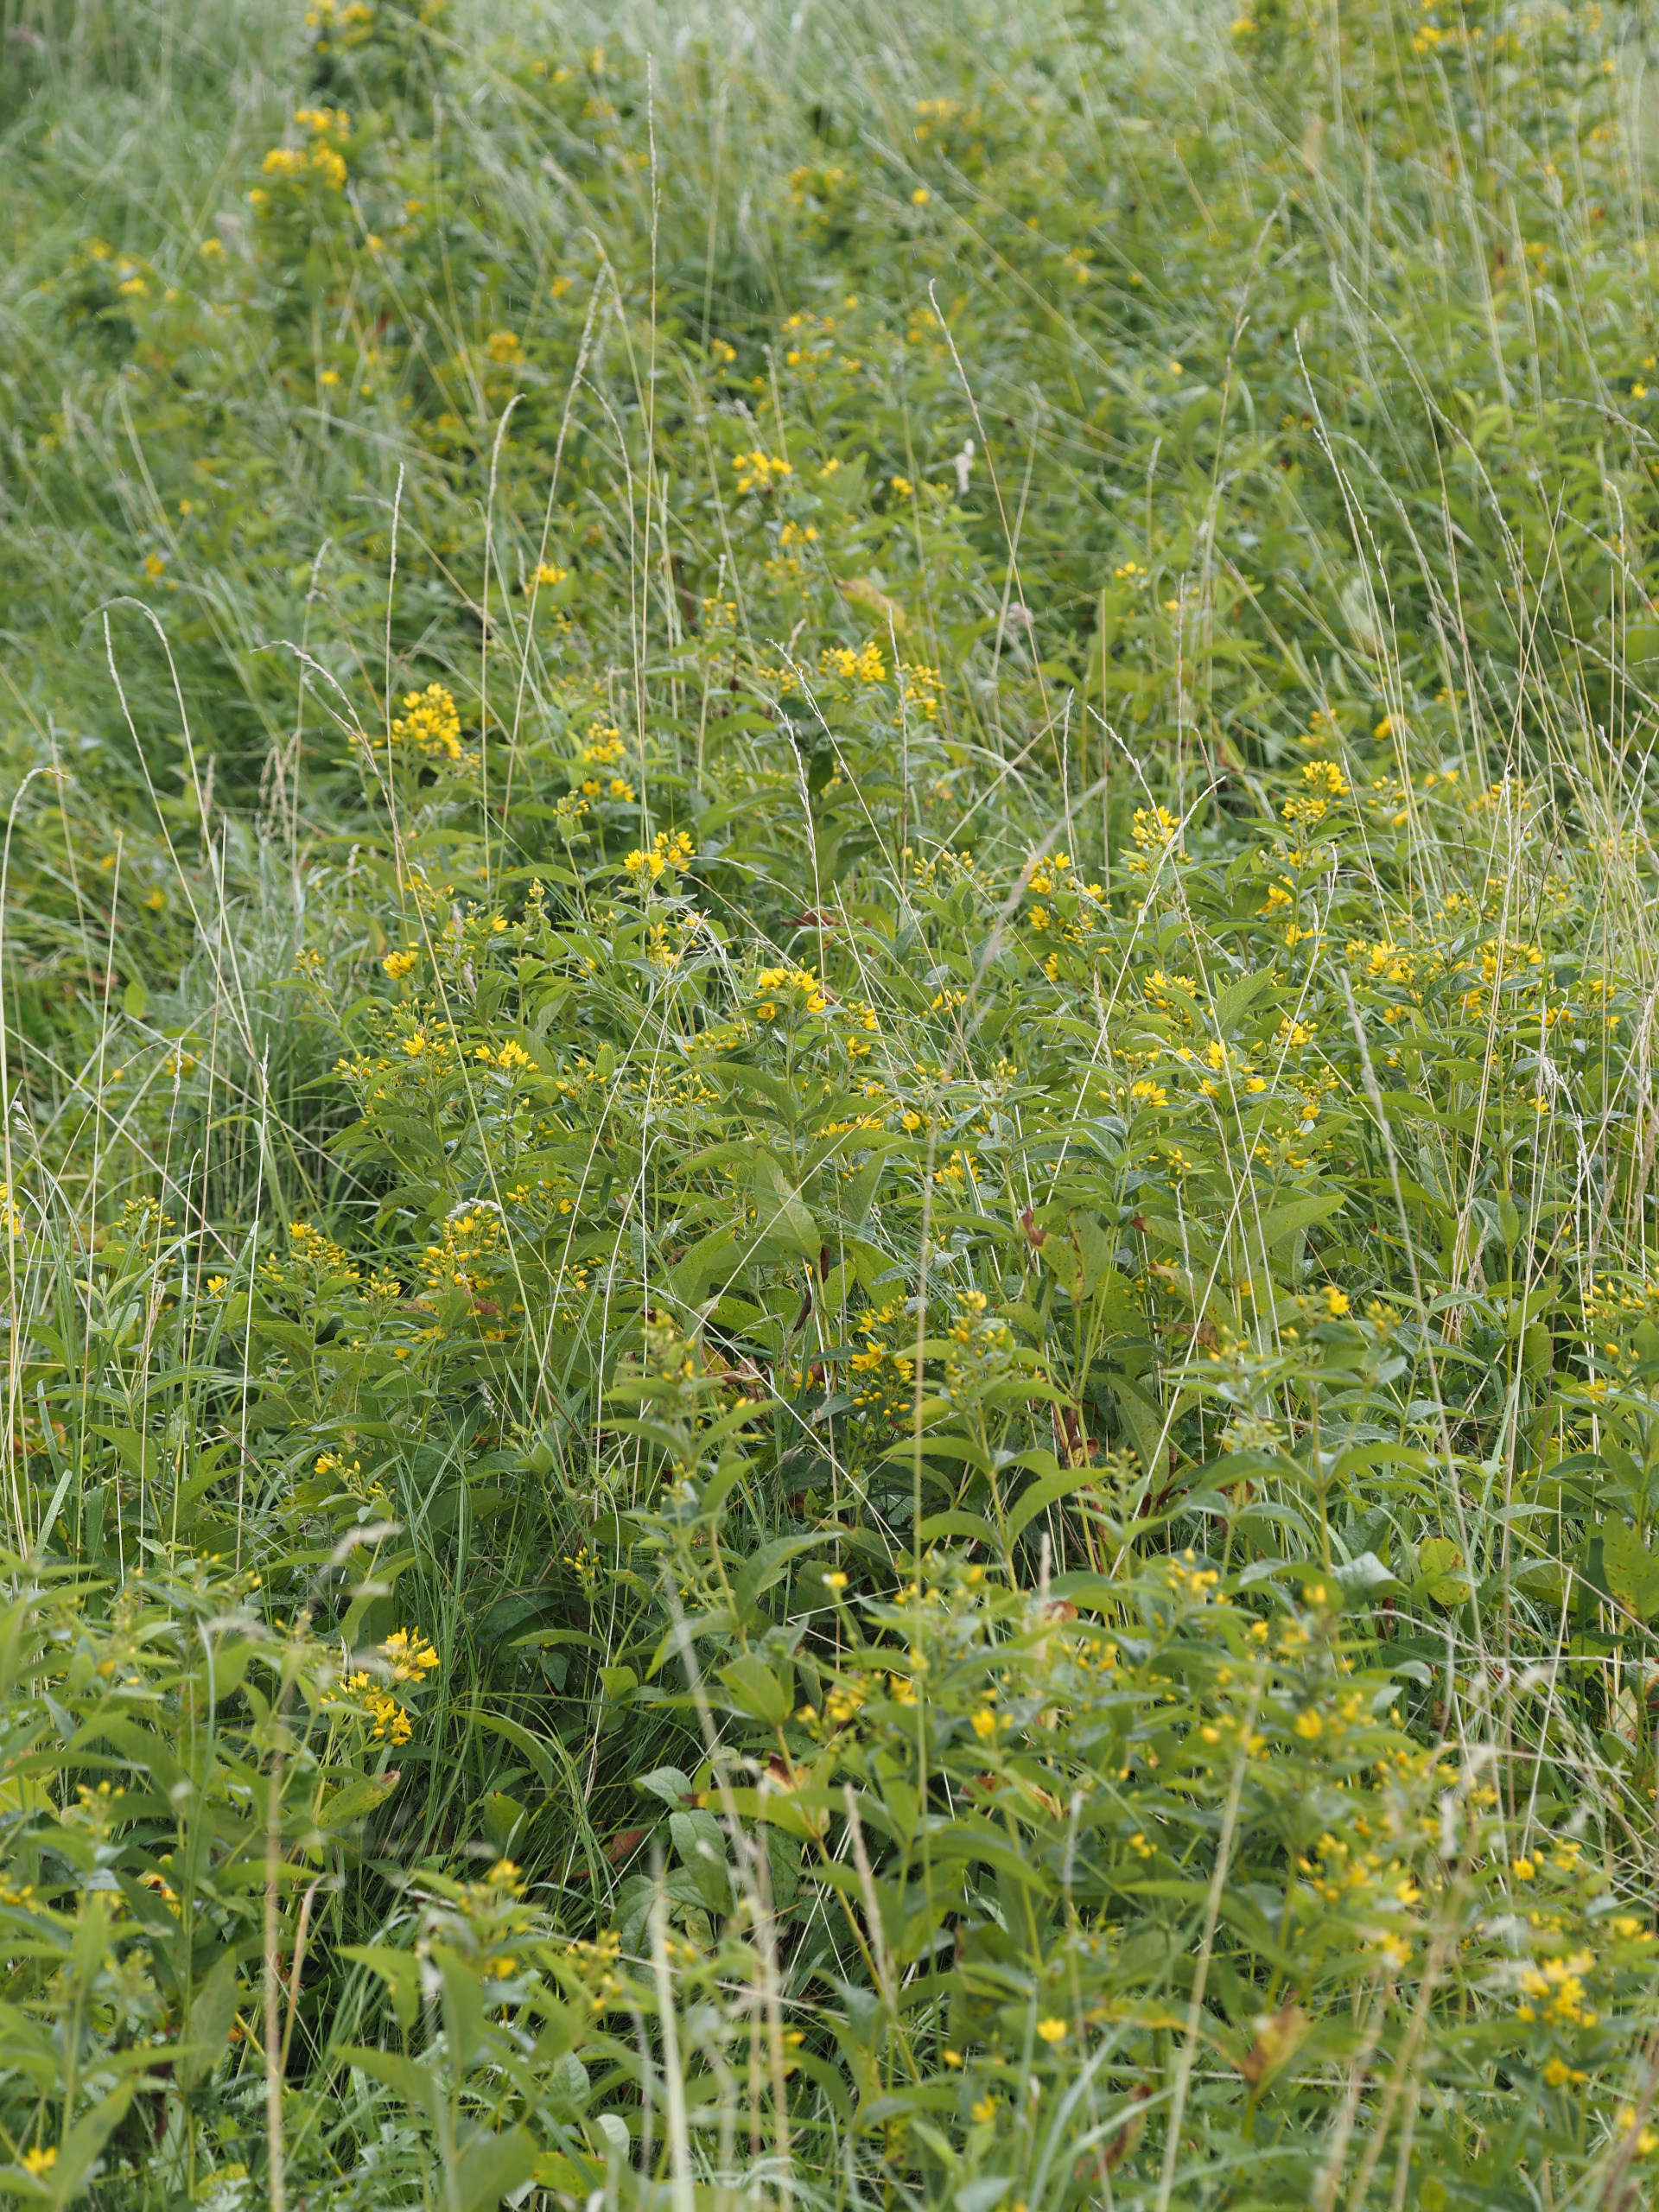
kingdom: Plantae
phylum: Tracheophyta
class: Magnoliopsida
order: Ericales
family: Primulaceae
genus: Lysimachia
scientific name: Lysimachia vulgaris
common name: Almindelig fredløs
